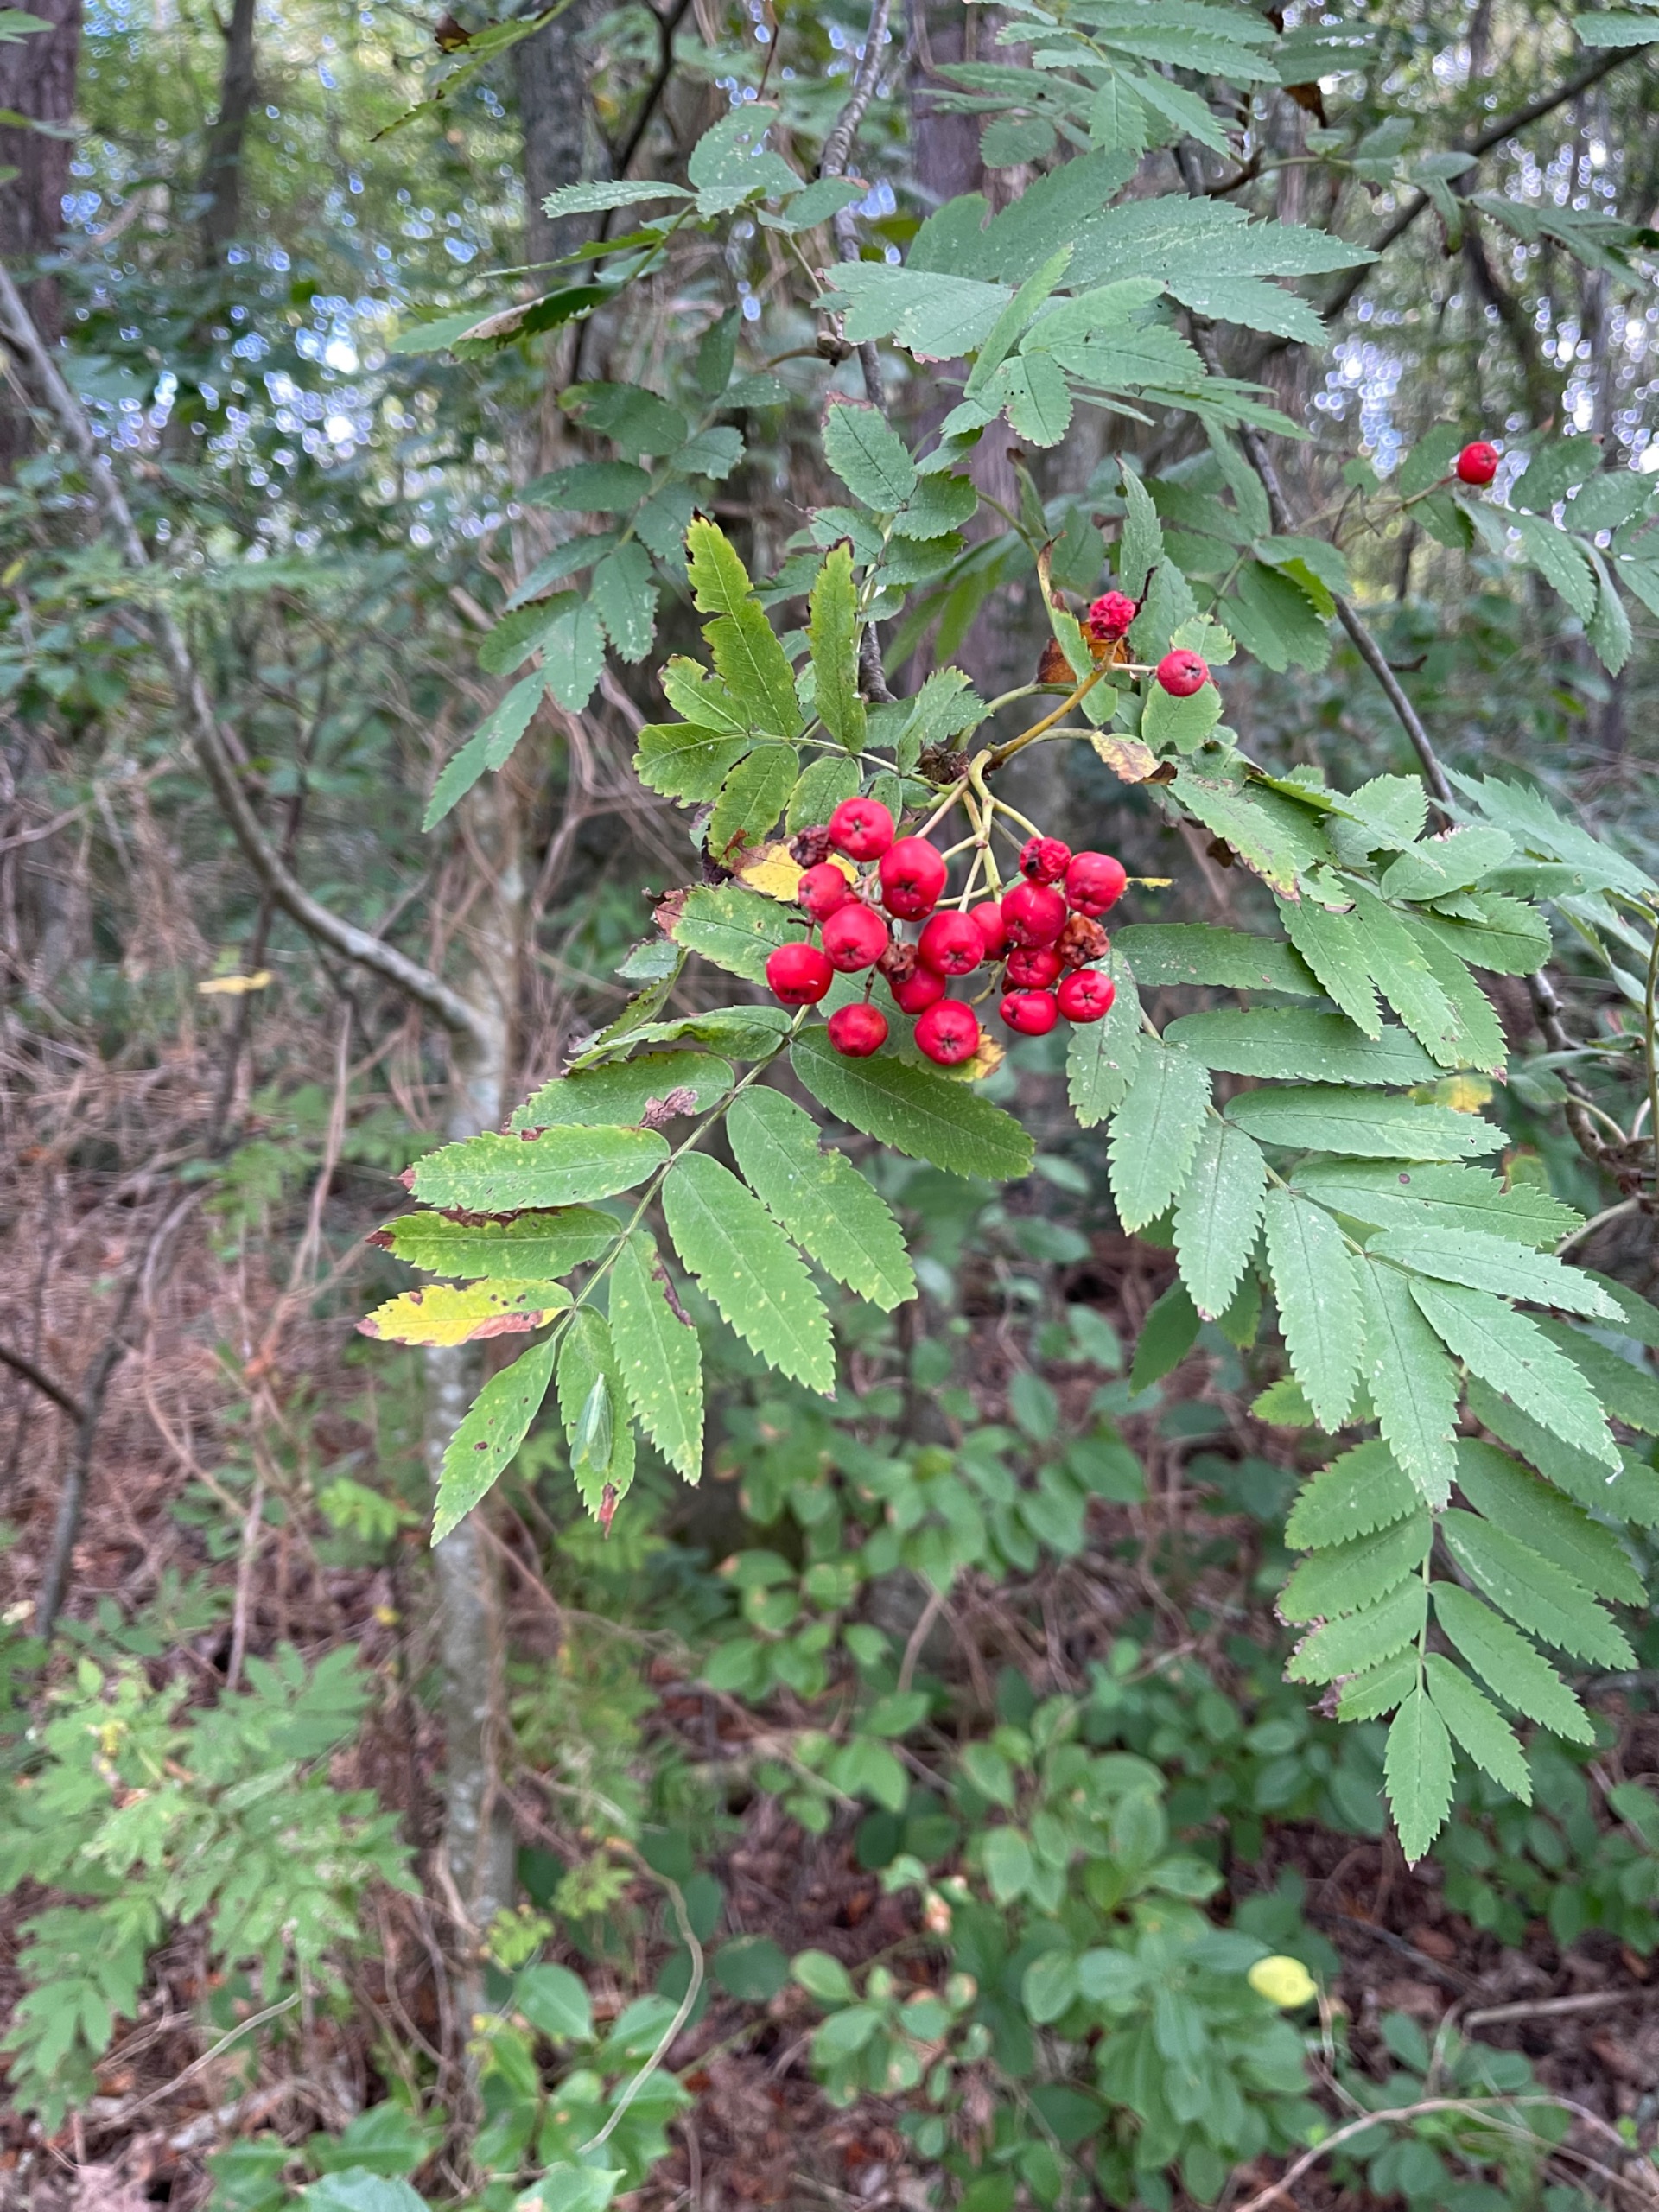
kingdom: Plantae
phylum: Tracheophyta
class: Magnoliopsida
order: Rosales
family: Rosaceae
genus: Sorbus
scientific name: Sorbus aucuparia
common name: Almindelig røn
